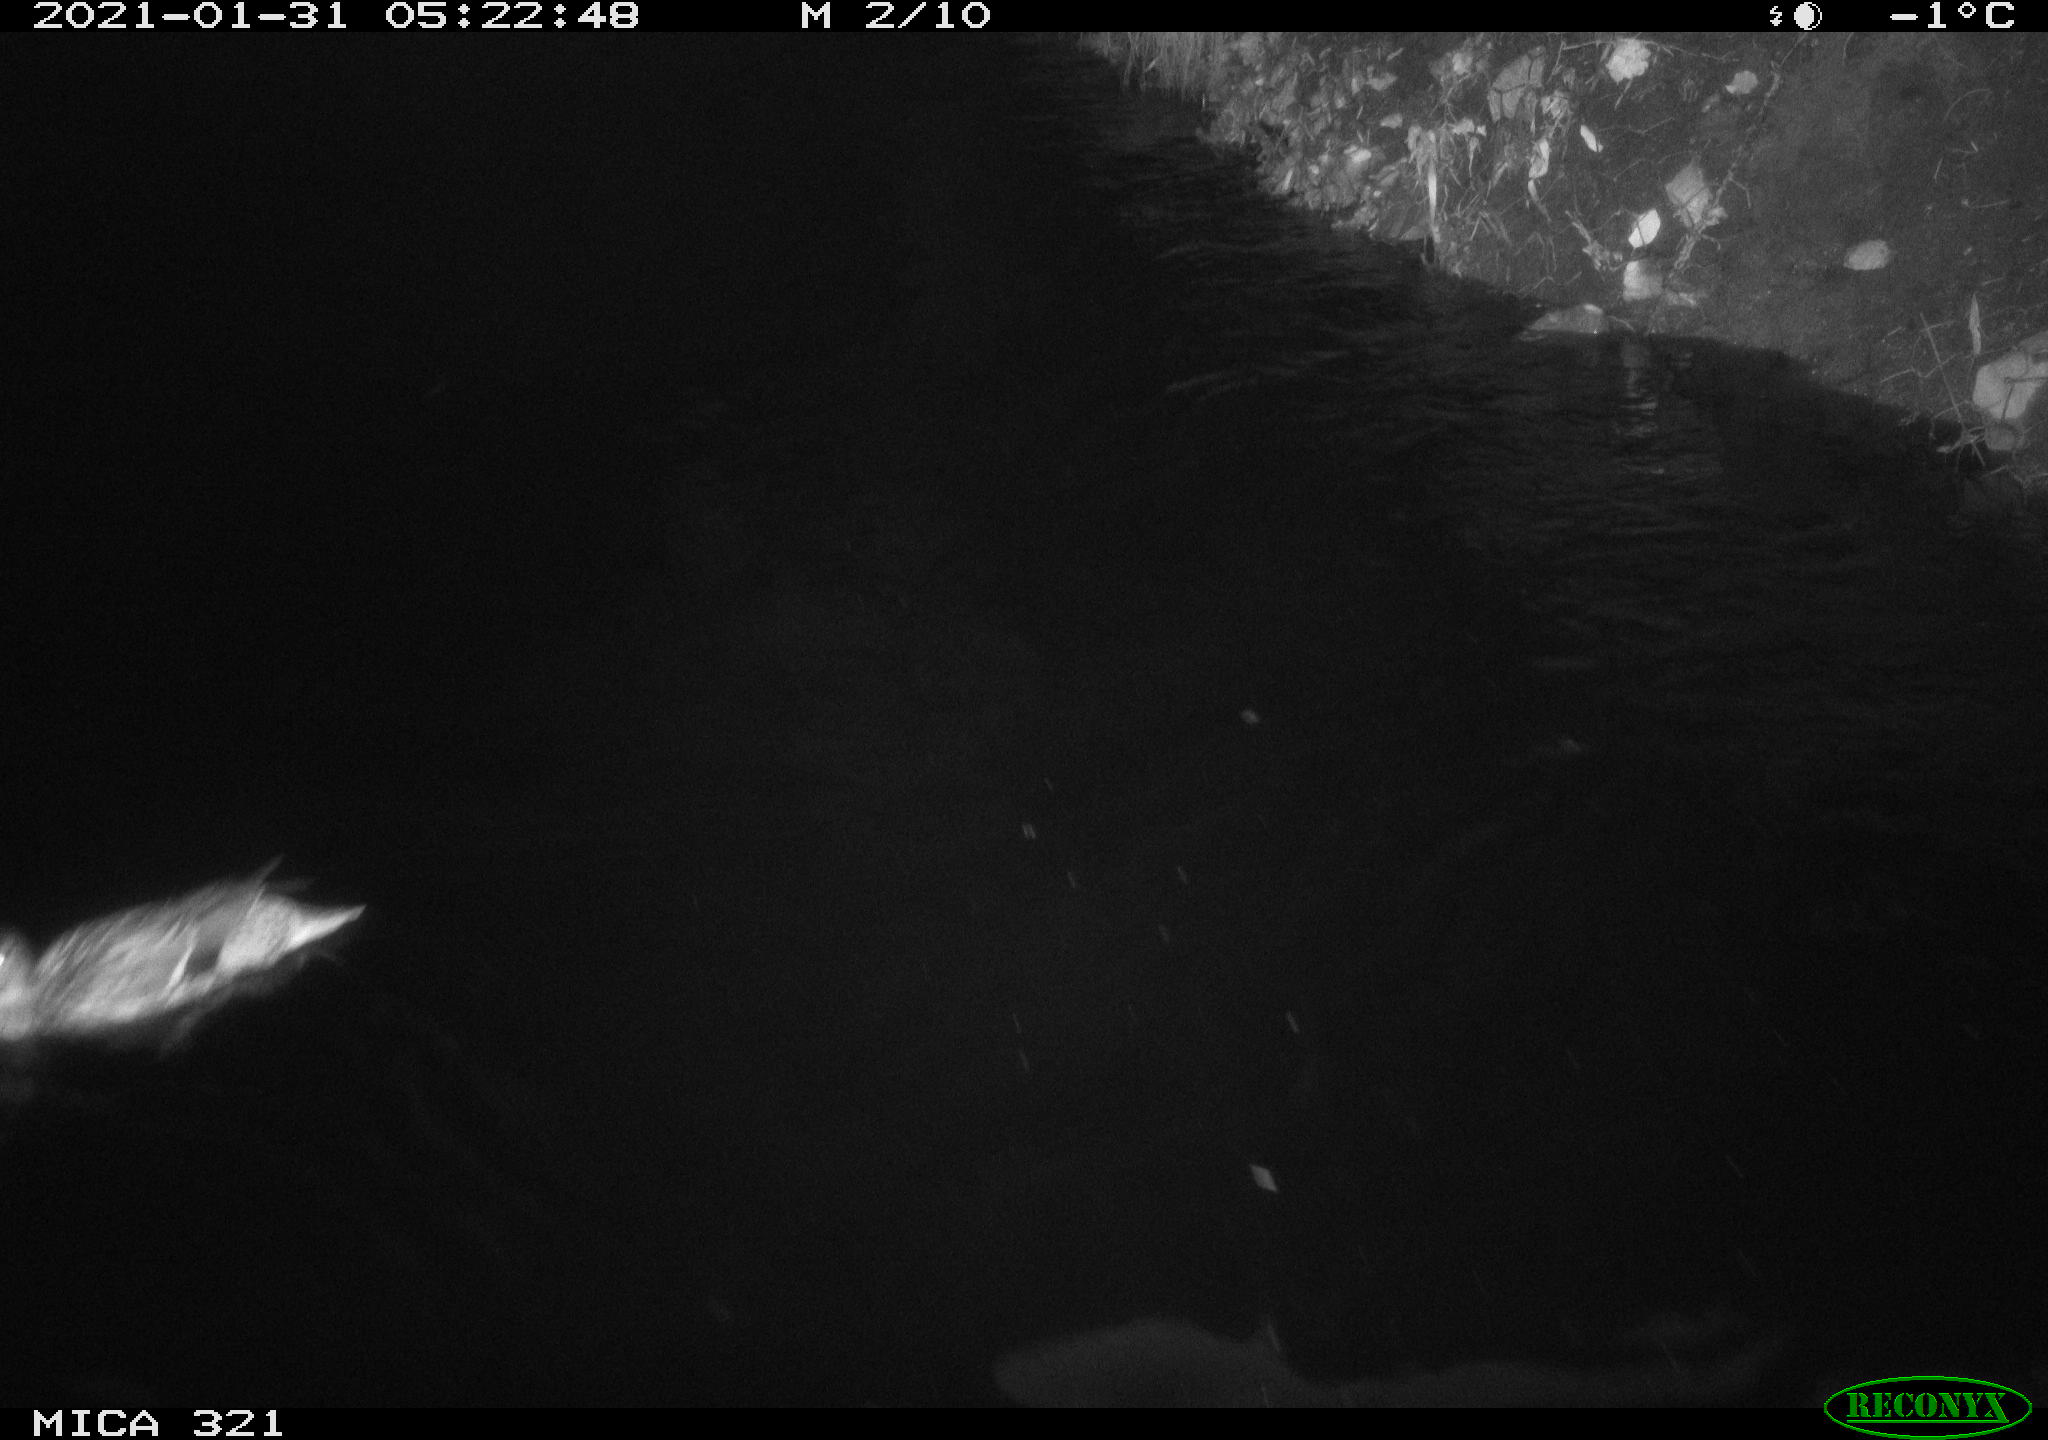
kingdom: Animalia
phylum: Chordata
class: Aves
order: Anseriformes
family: Anatidae
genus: Anas
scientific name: Anas platyrhynchos
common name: Mallard
